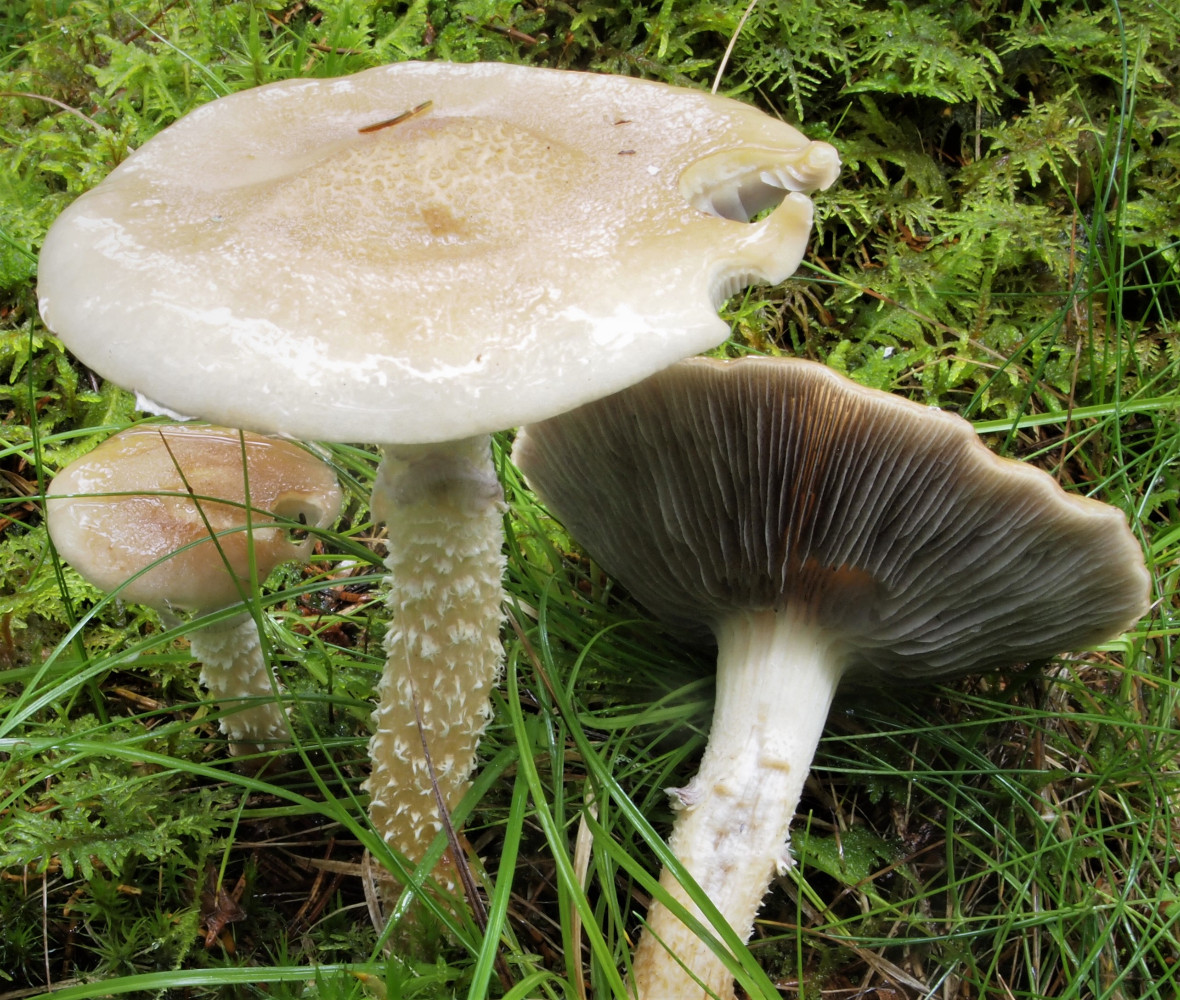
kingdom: Fungi
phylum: Basidiomycota
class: Agaricomycetes
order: Agaricales
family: Strophariaceae
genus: Stropharia
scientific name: Stropharia hornemannii
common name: nordisk bredblad
